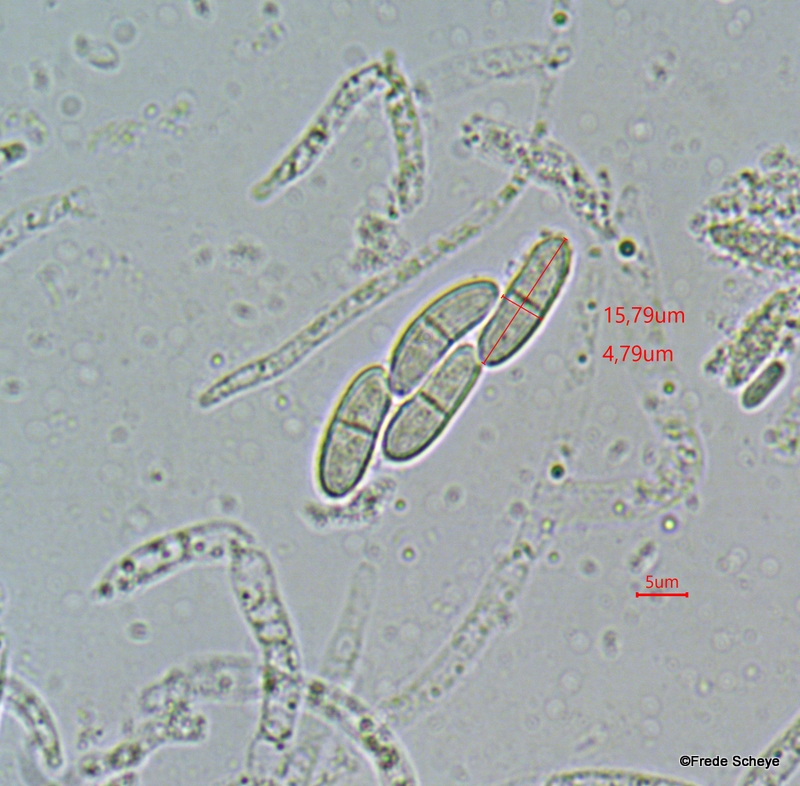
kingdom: Fungi
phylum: Ascomycota
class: Sordariomycetes
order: Hypocreales
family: Nectriaceae
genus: Nectria
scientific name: Nectria cinnabarina
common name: almindelig cinnobersvamp
